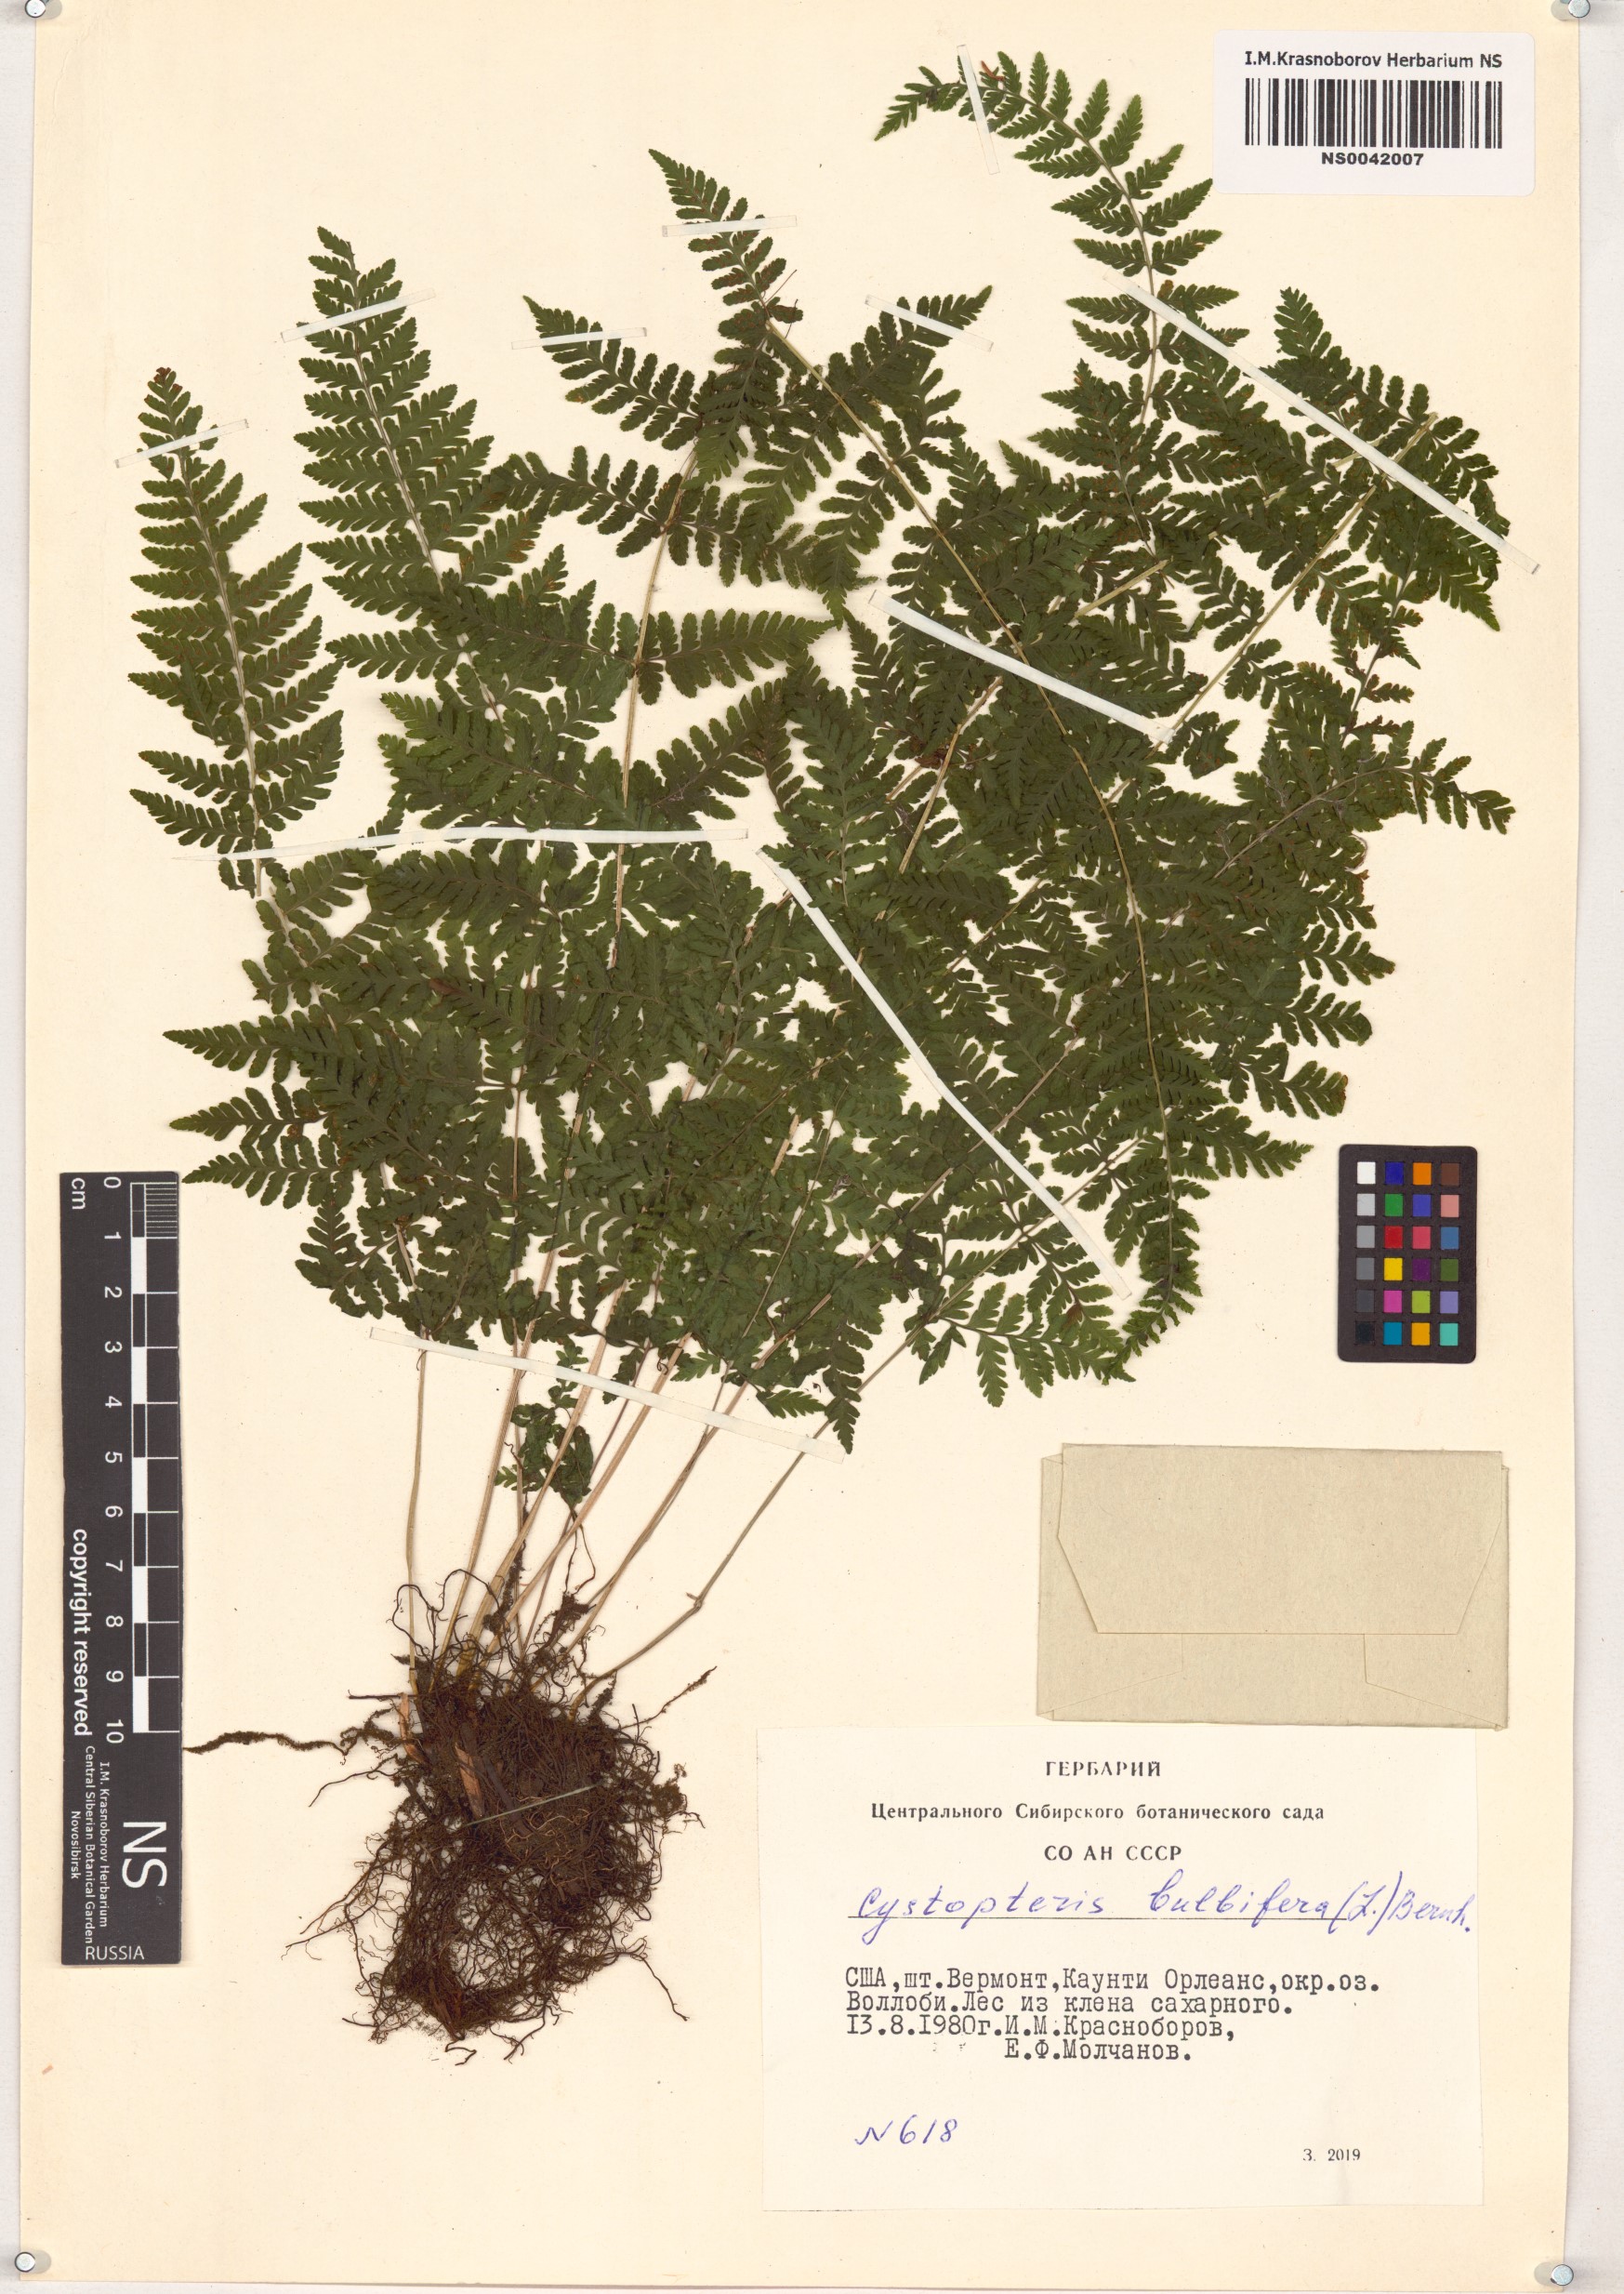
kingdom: Plantae
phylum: Tracheophyta
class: Polypodiopsida
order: Polypodiales
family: Cystopteridaceae
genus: Cystopteris
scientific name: Cystopteris bulbifera
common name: Bulblet bladder fern
